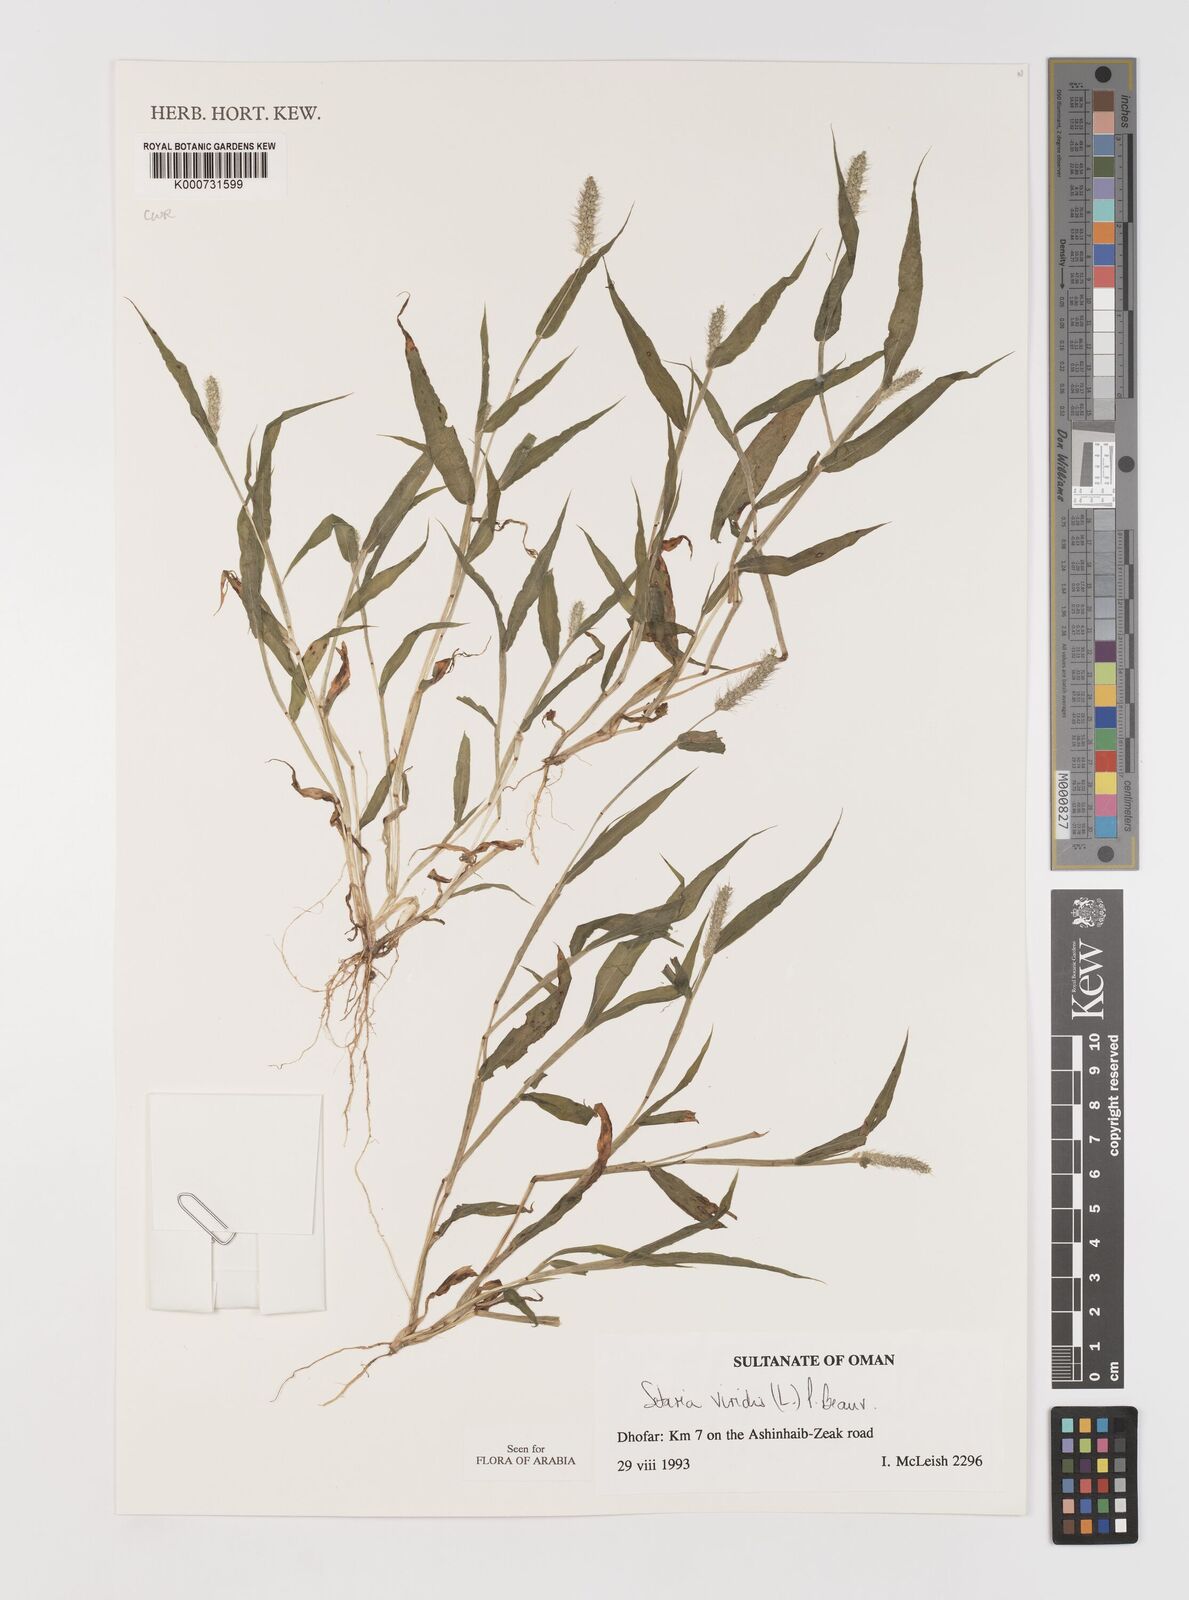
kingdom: Plantae
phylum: Tracheophyta
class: Liliopsida
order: Poales
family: Poaceae
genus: Setaria
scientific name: Setaria viridis
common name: Green bristlegrass
